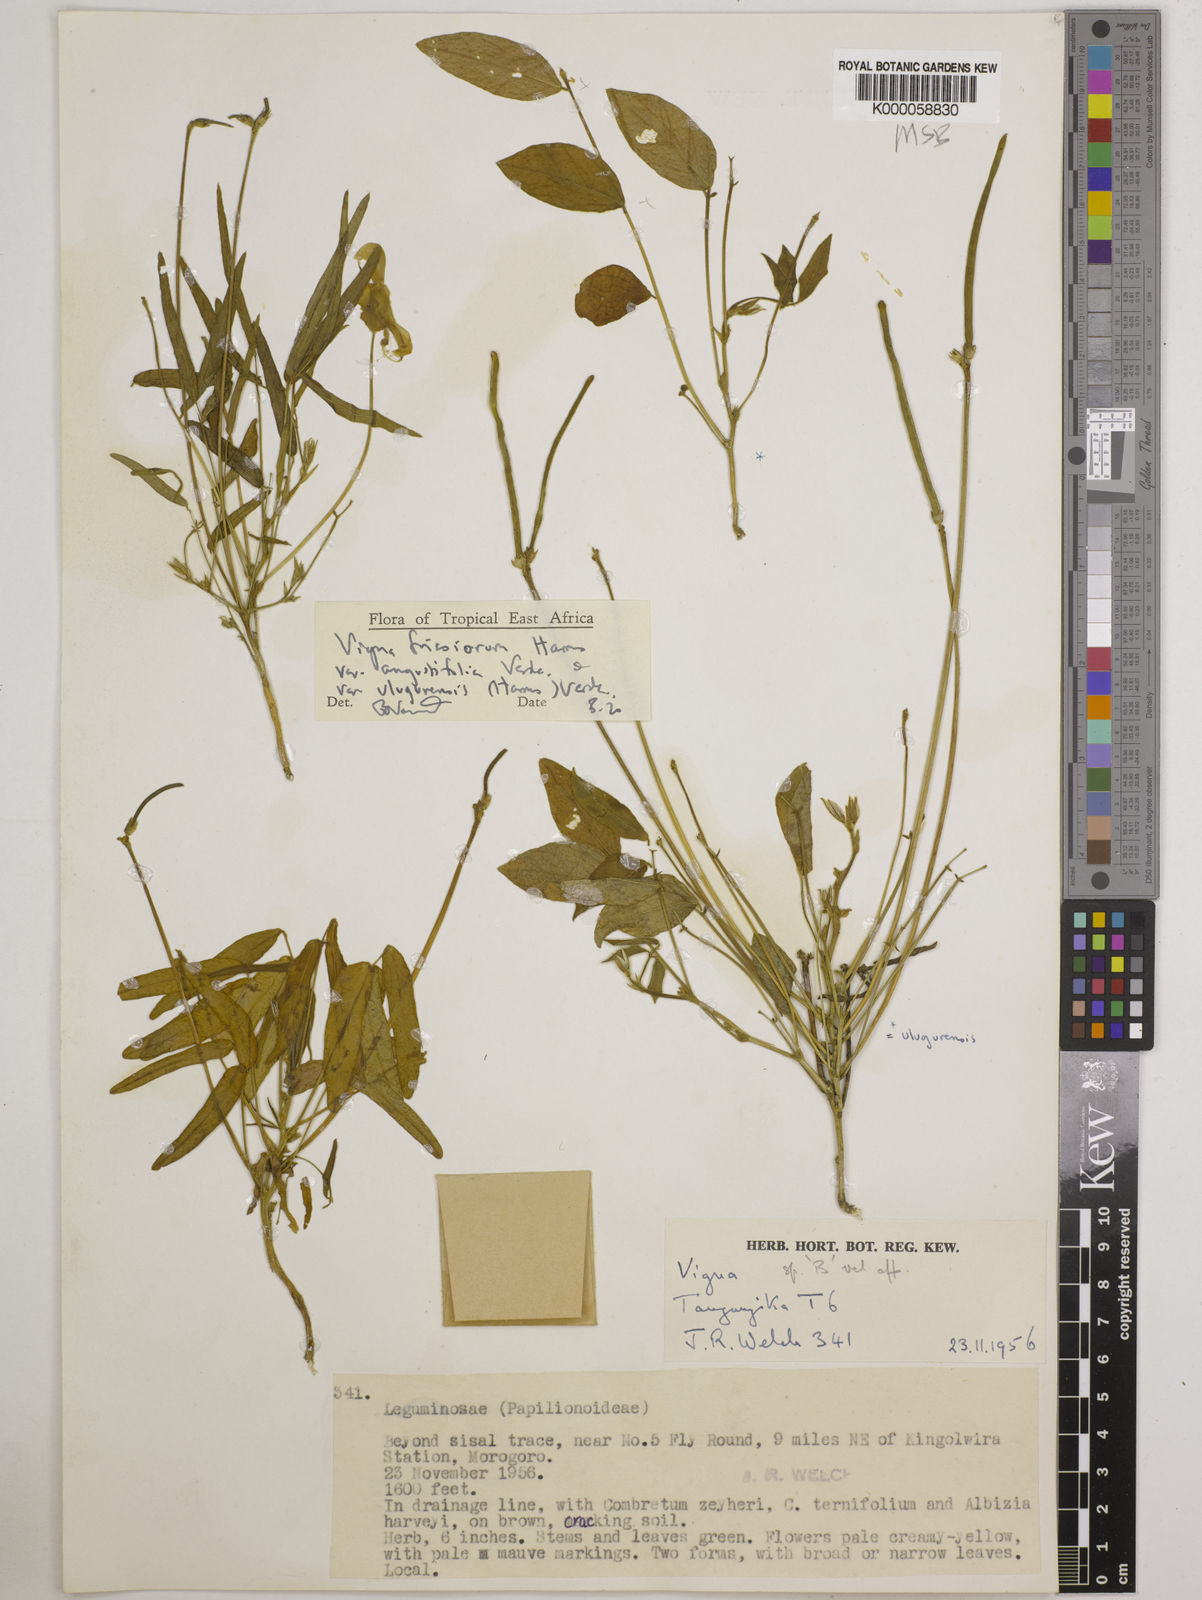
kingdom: Plantae
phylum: Tracheophyta
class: Magnoliopsida
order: Fabales
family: Fabaceae
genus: Vigna
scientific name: Vigna
